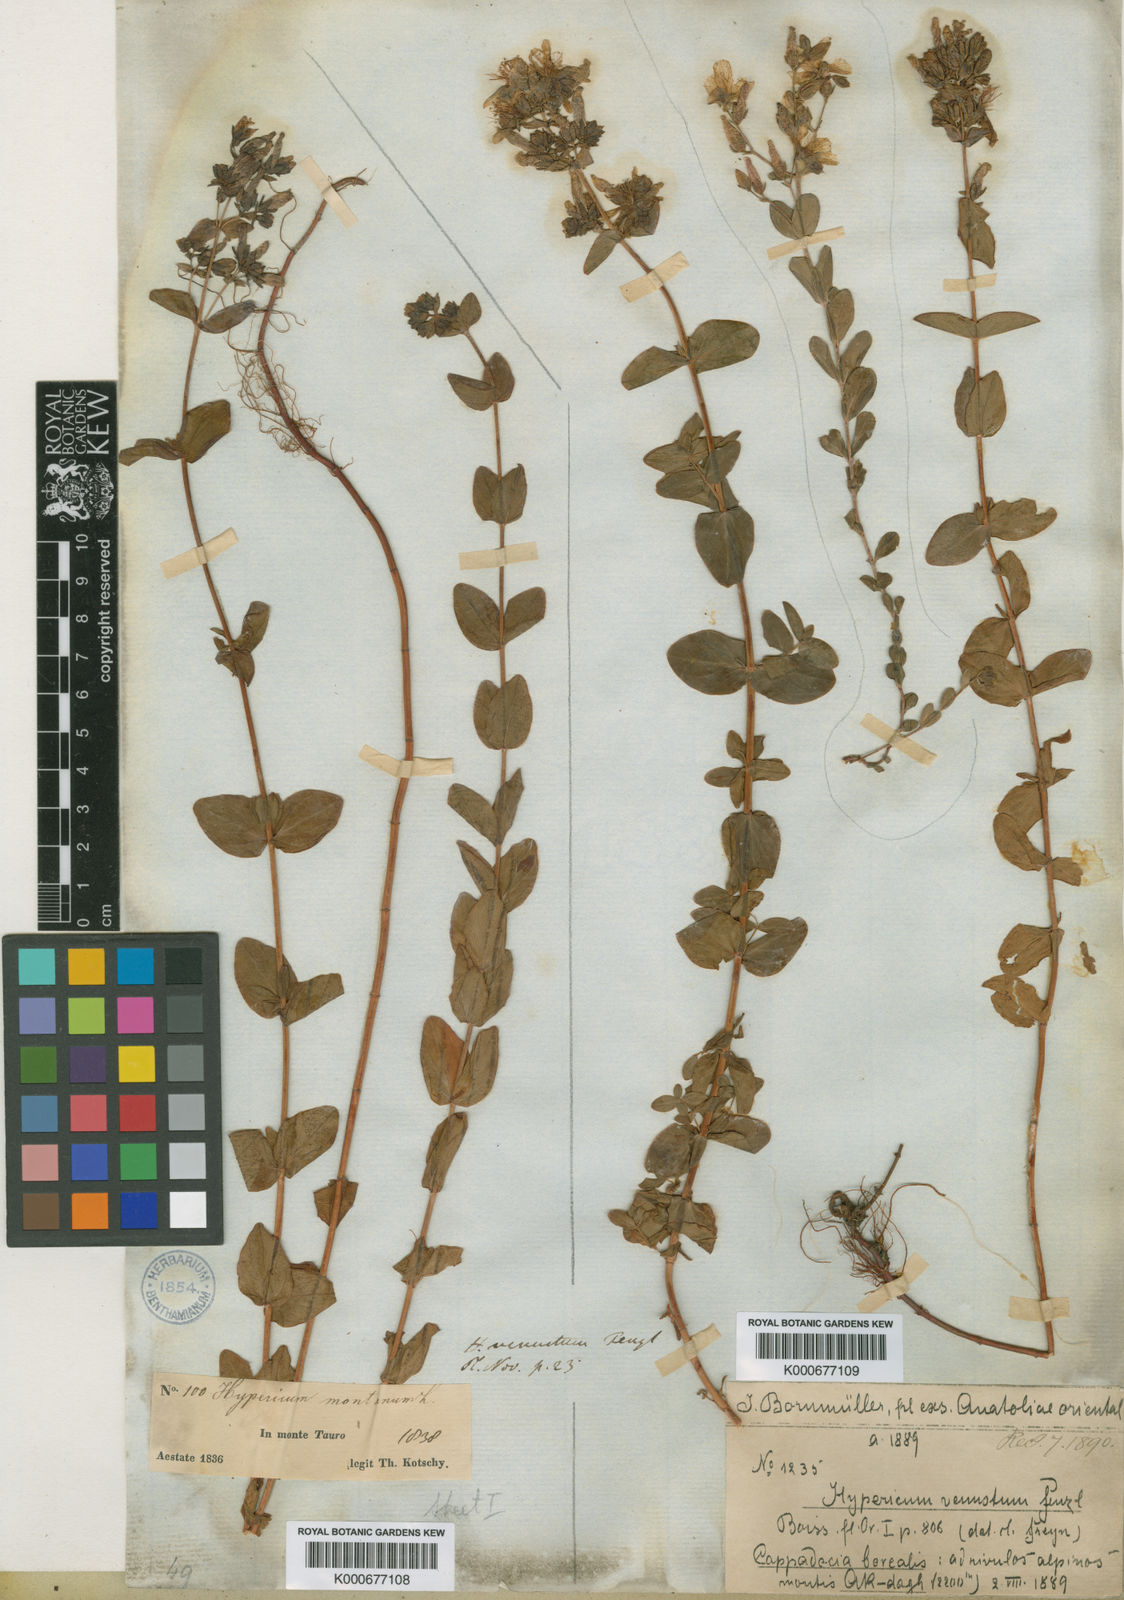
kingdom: Plantae
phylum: Tracheophyta
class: Magnoliopsida
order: Malpighiales
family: Hypericaceae
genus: Hypericum
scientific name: Hypericum venustum
